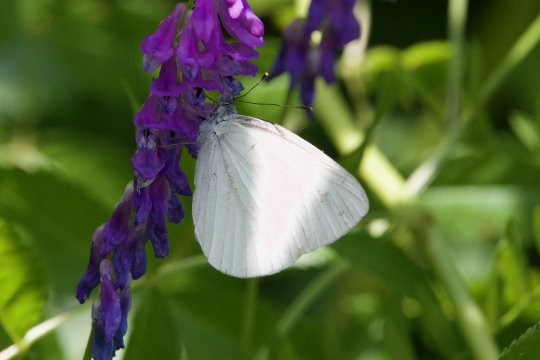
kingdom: Animalia
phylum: Arthropoda
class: Insecta
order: Lepidoptera
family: Pieridae
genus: Pieris
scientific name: Pieris oleracea
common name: Mustard White
